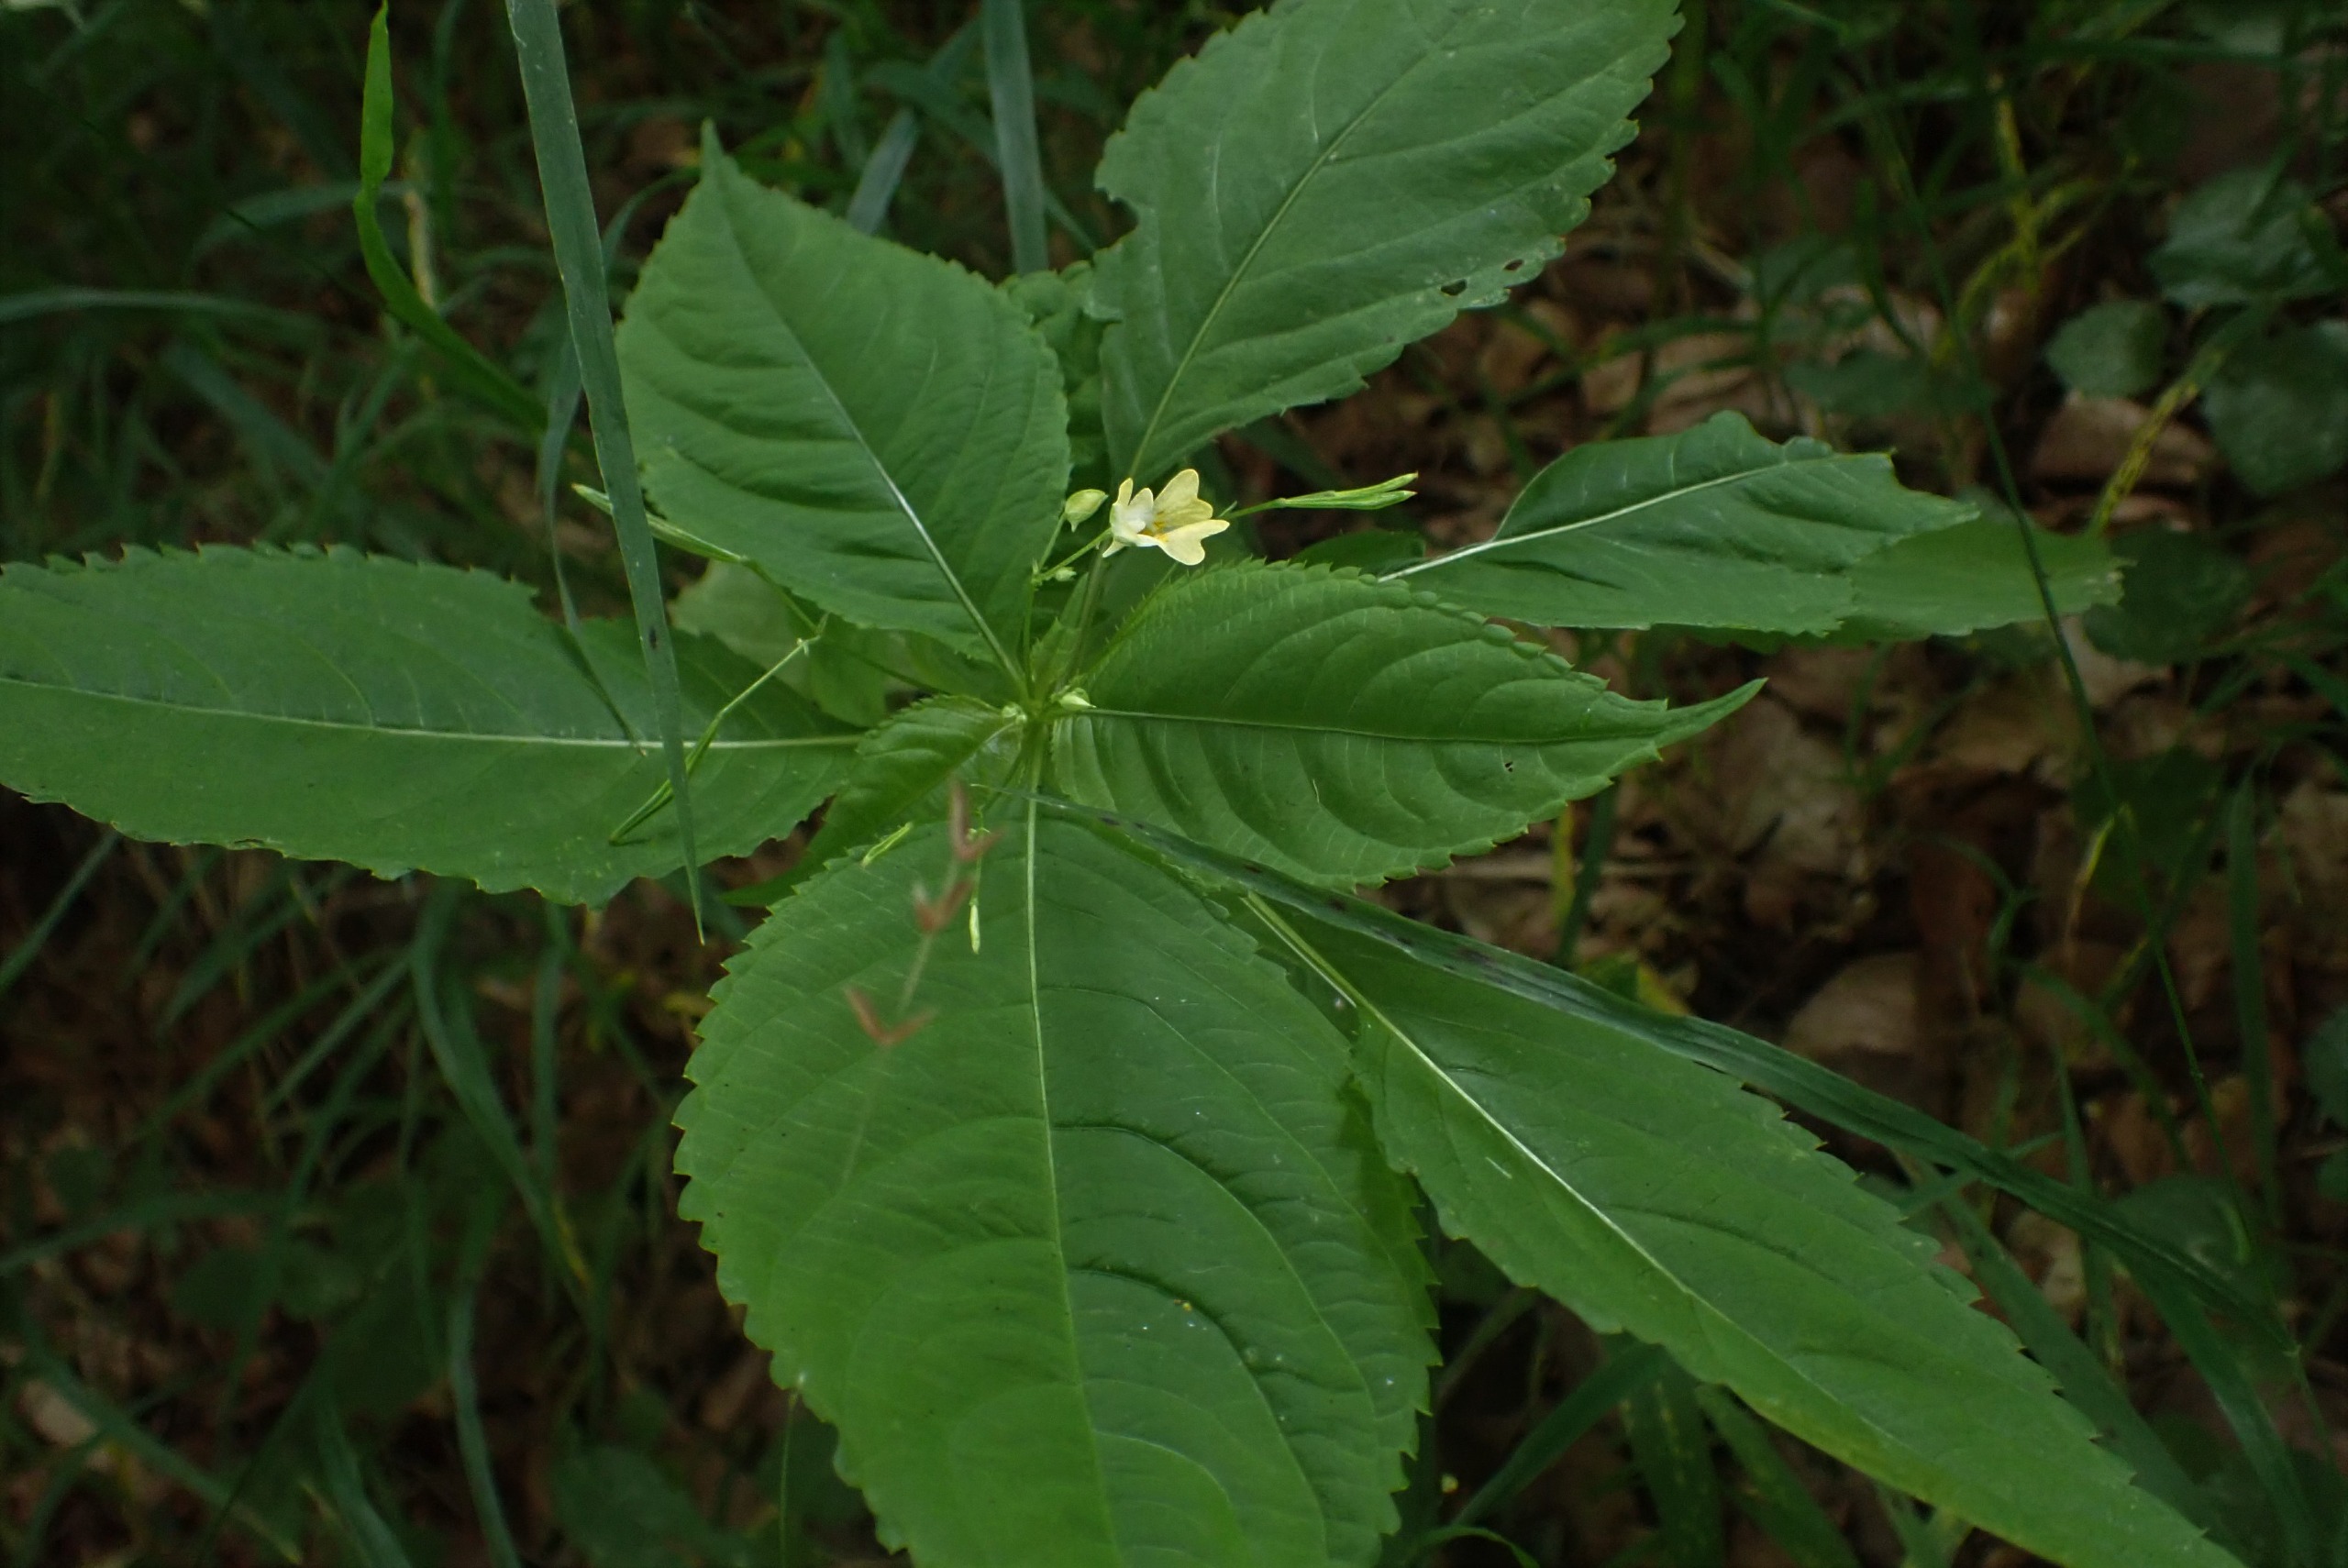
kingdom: Plantae
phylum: Tracheophyta
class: Magnoliopsida
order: Ericales
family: Balsaminaceae
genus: Impatiens
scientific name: Impatiens parviflora
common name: Småblomstret balsamin
